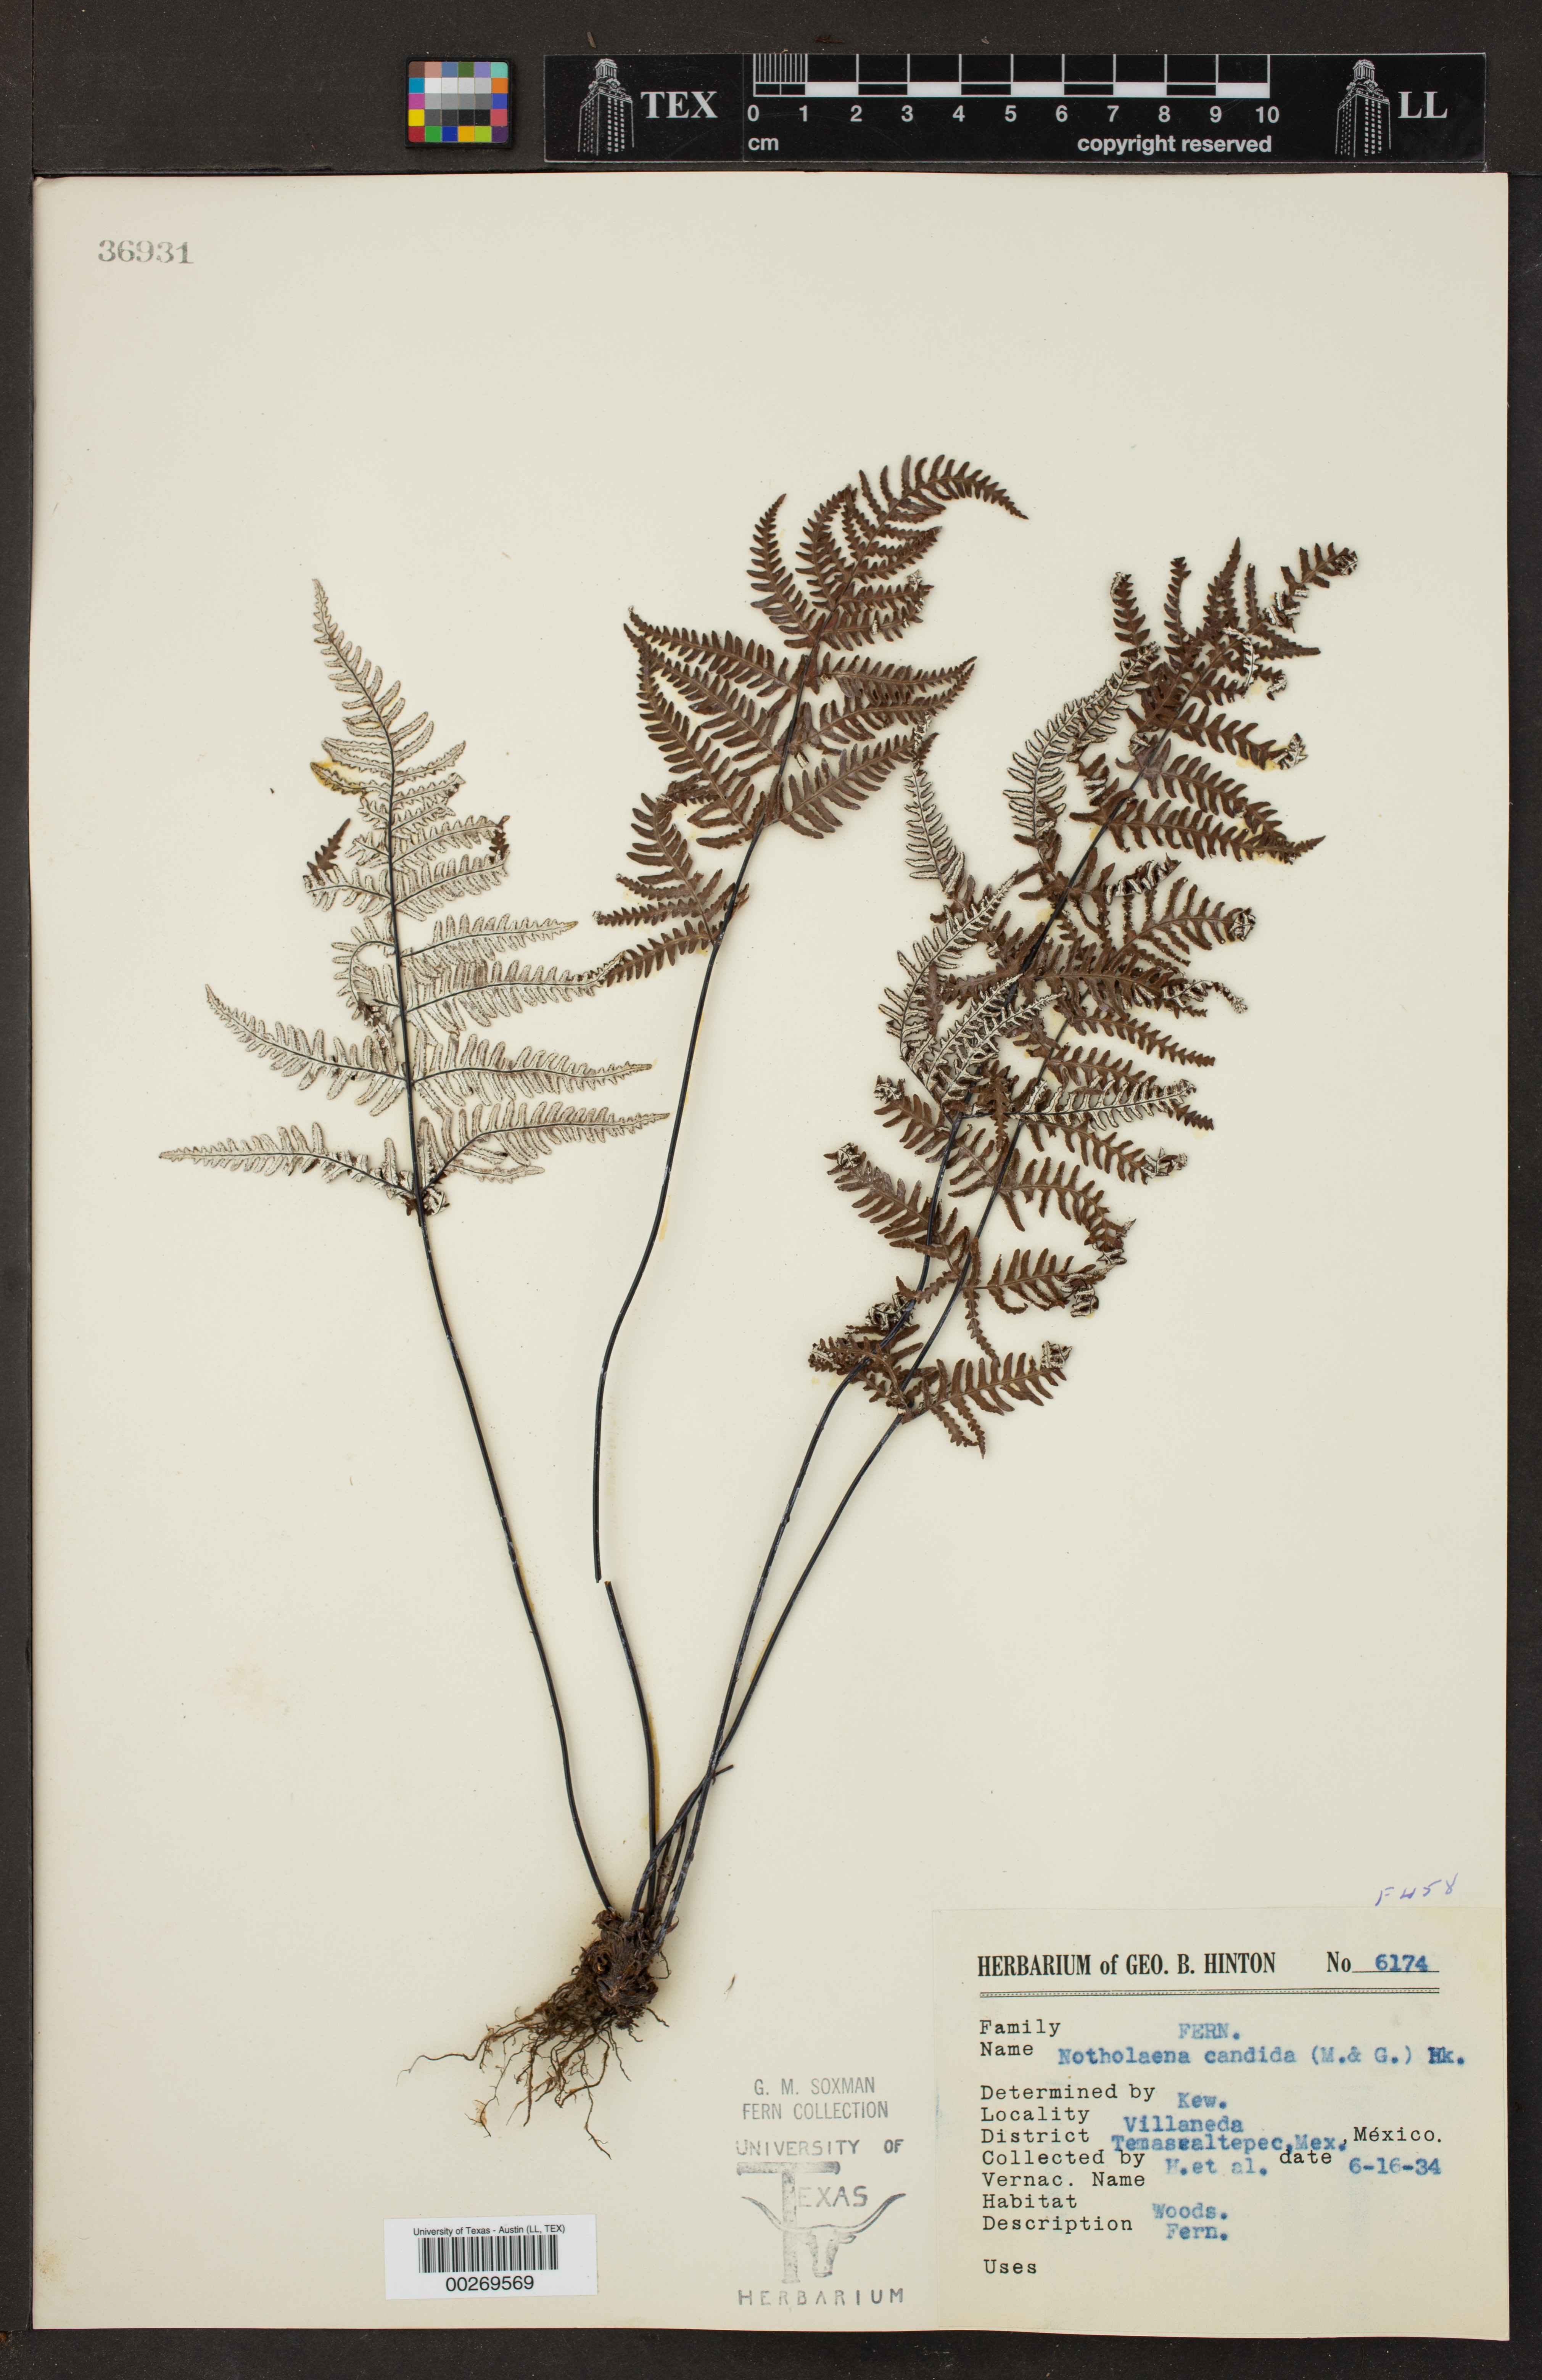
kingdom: Plantae
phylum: Tracheophyta
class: Polypodiopsida
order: Polypodiales
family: Pteridaceae
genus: Notholaena
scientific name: Notholaena candida
